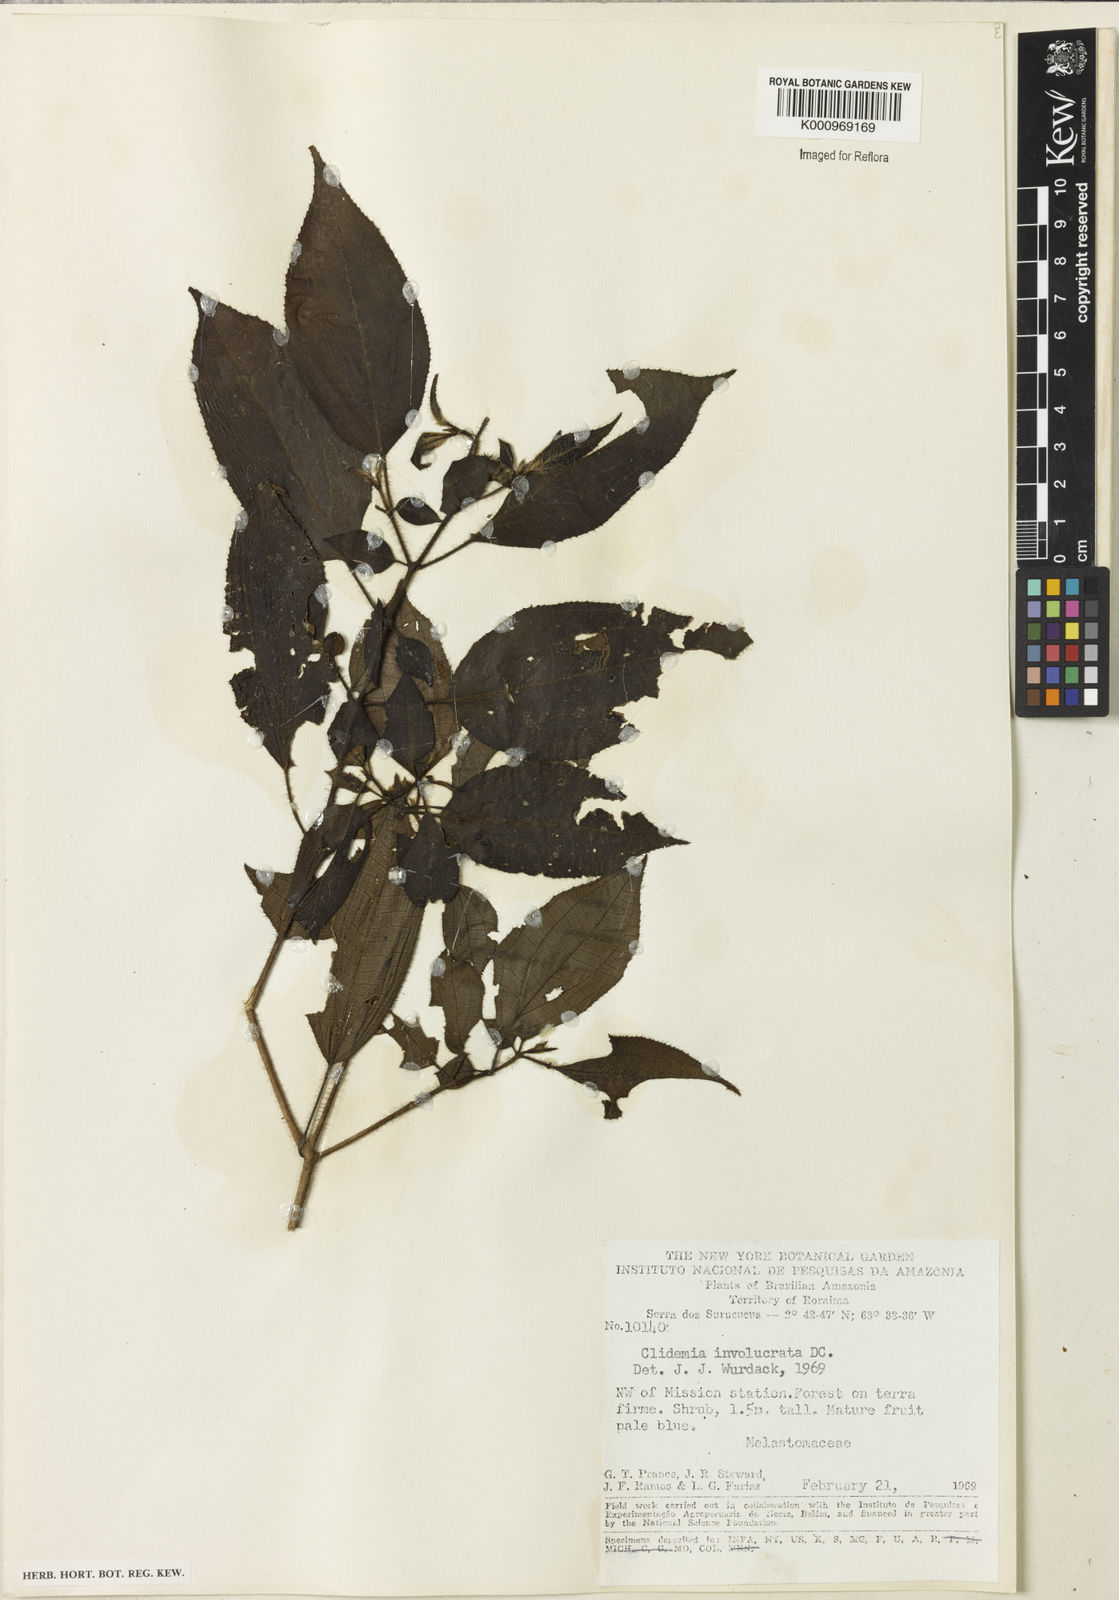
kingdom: Plantae
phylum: Tracheophyta
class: Magnoliopsida
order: Myrtales
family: Melastomataceae
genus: Miconia
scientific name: Miconia cephaloides
